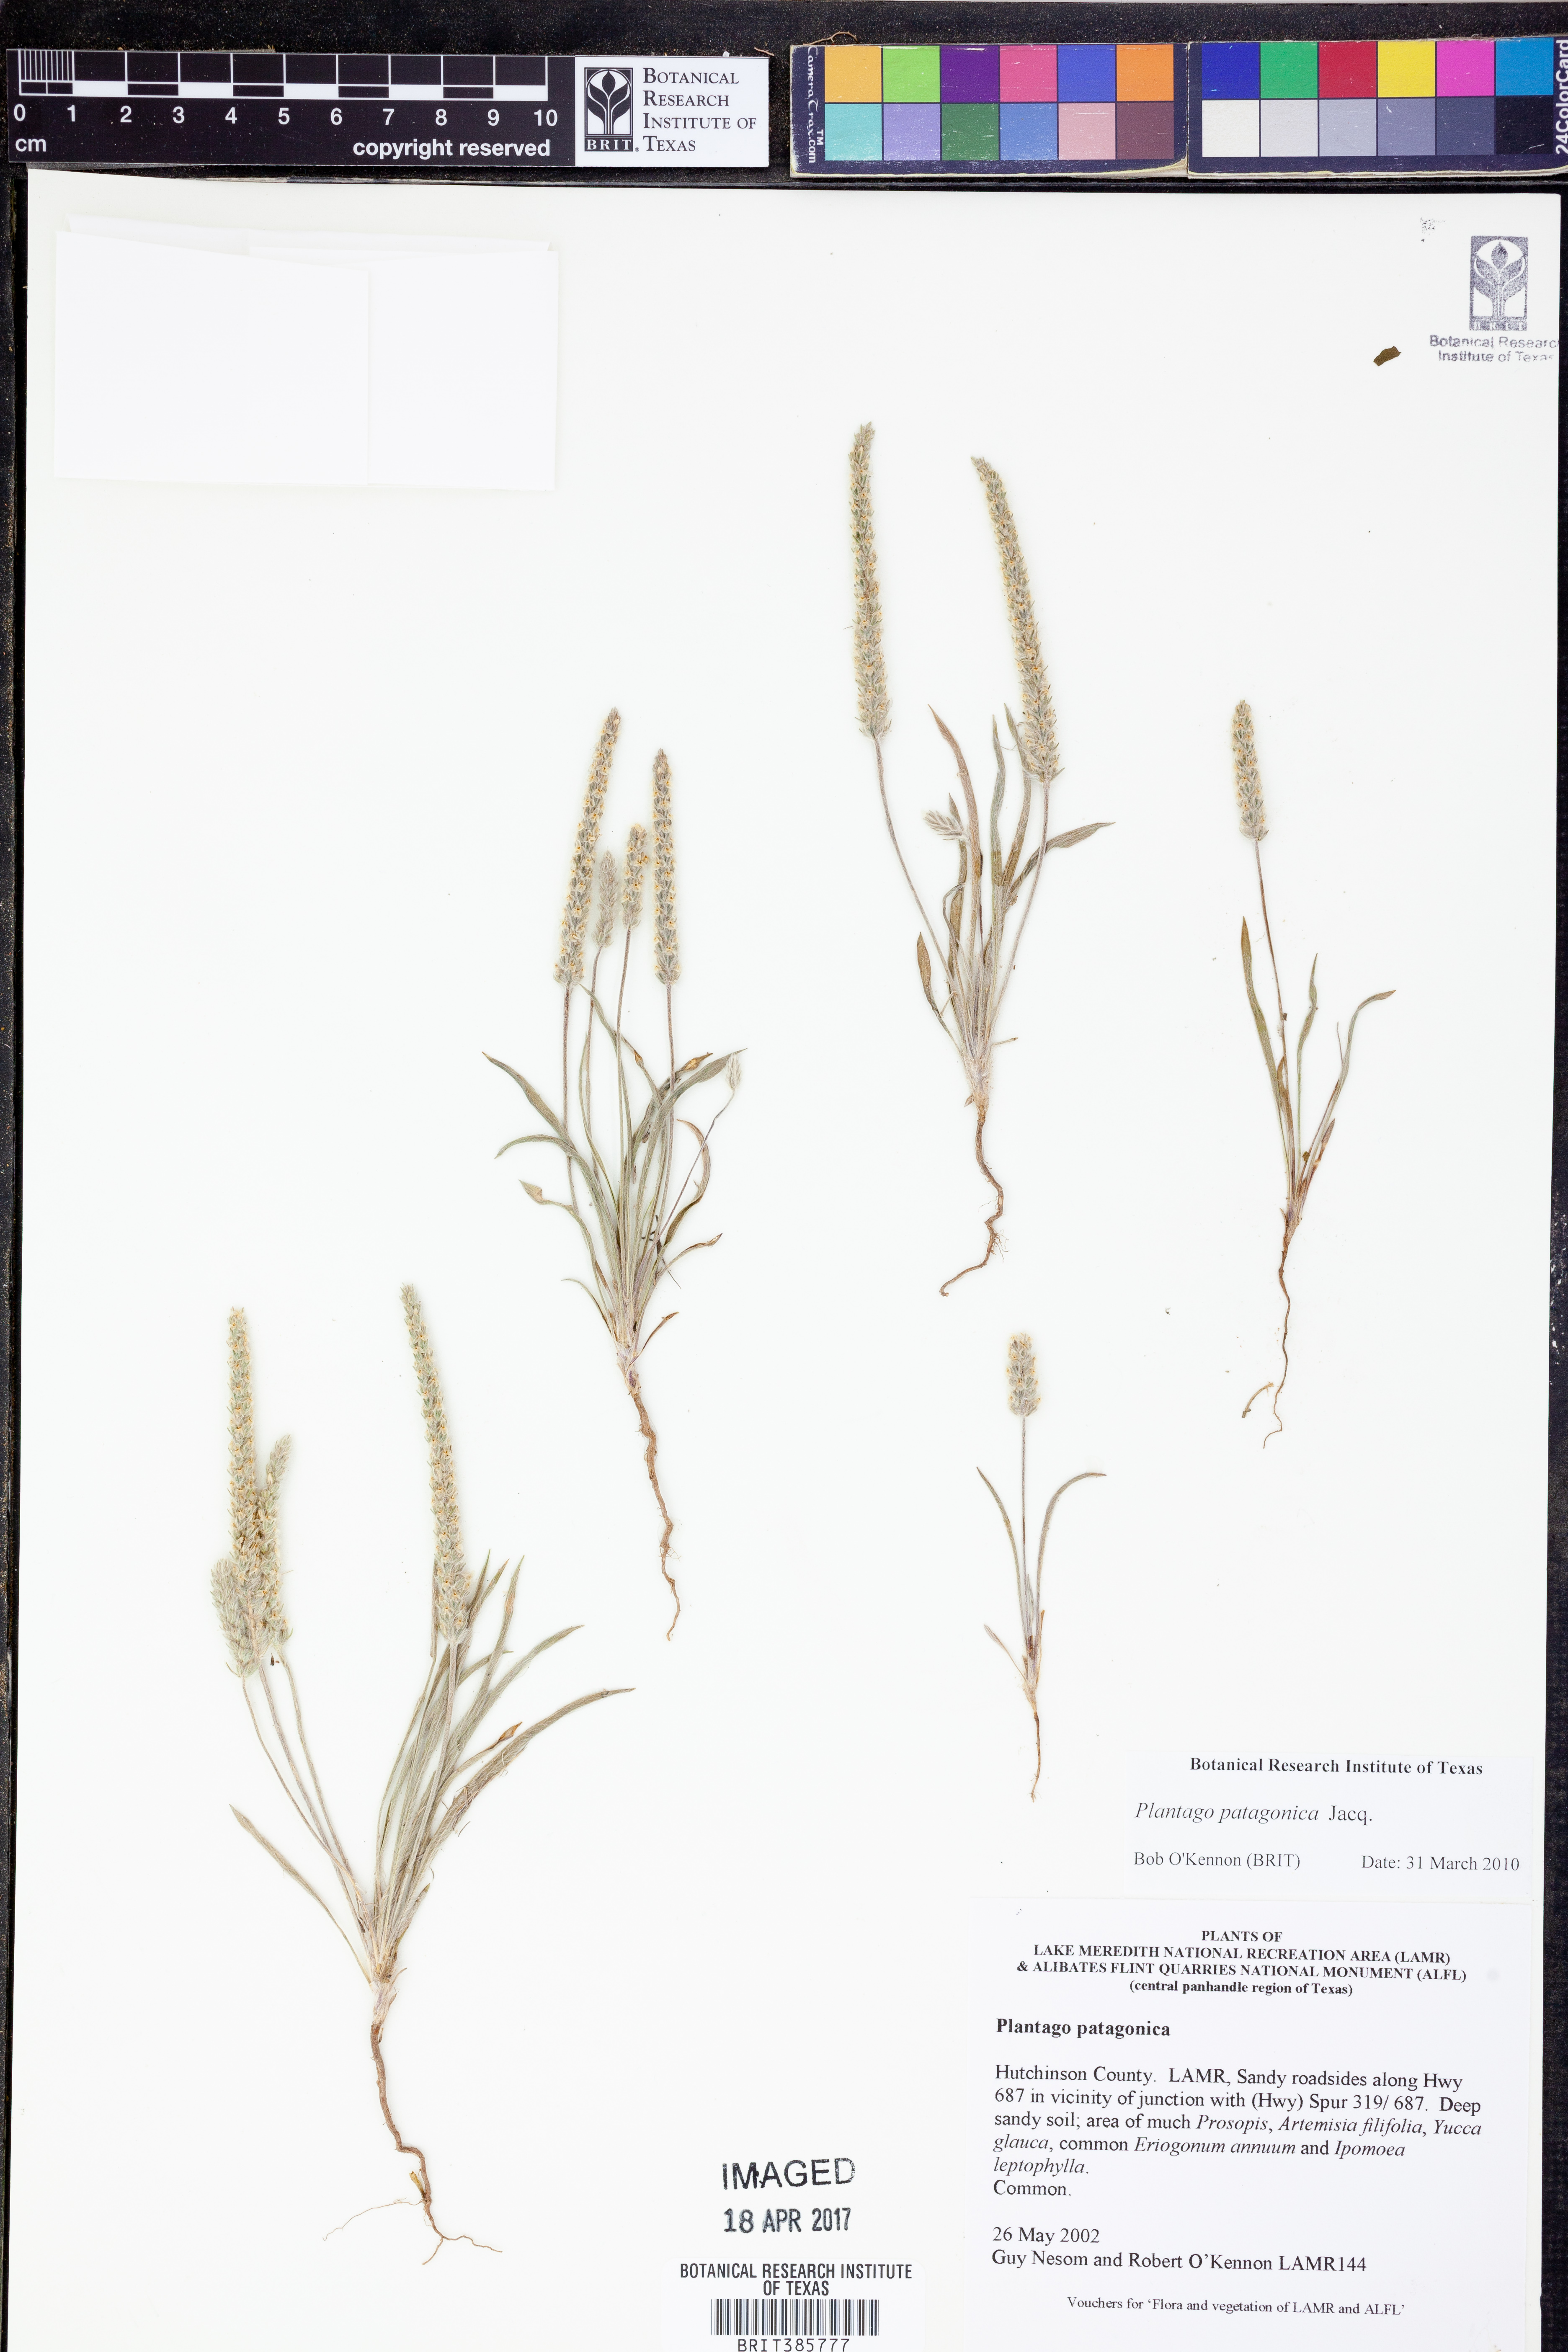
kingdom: Plantae
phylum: Tracheophyta
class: Magnoliopsida
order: Lamiales
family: Plantaginaceae
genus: Plantago
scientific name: Plantago patagonica
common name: Patagonia indian-wheat
